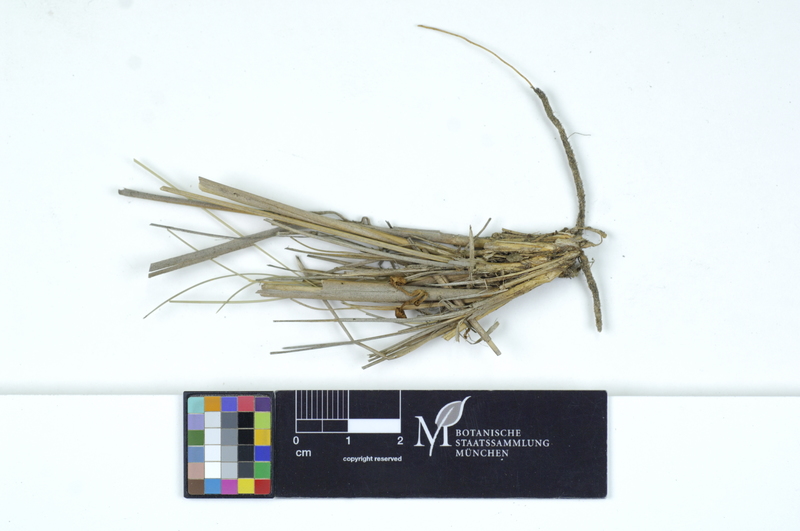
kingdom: Plantae
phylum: Tracheophyta
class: Liliopsida
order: Poales
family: Poaceae
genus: Stipa
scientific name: Stipa
